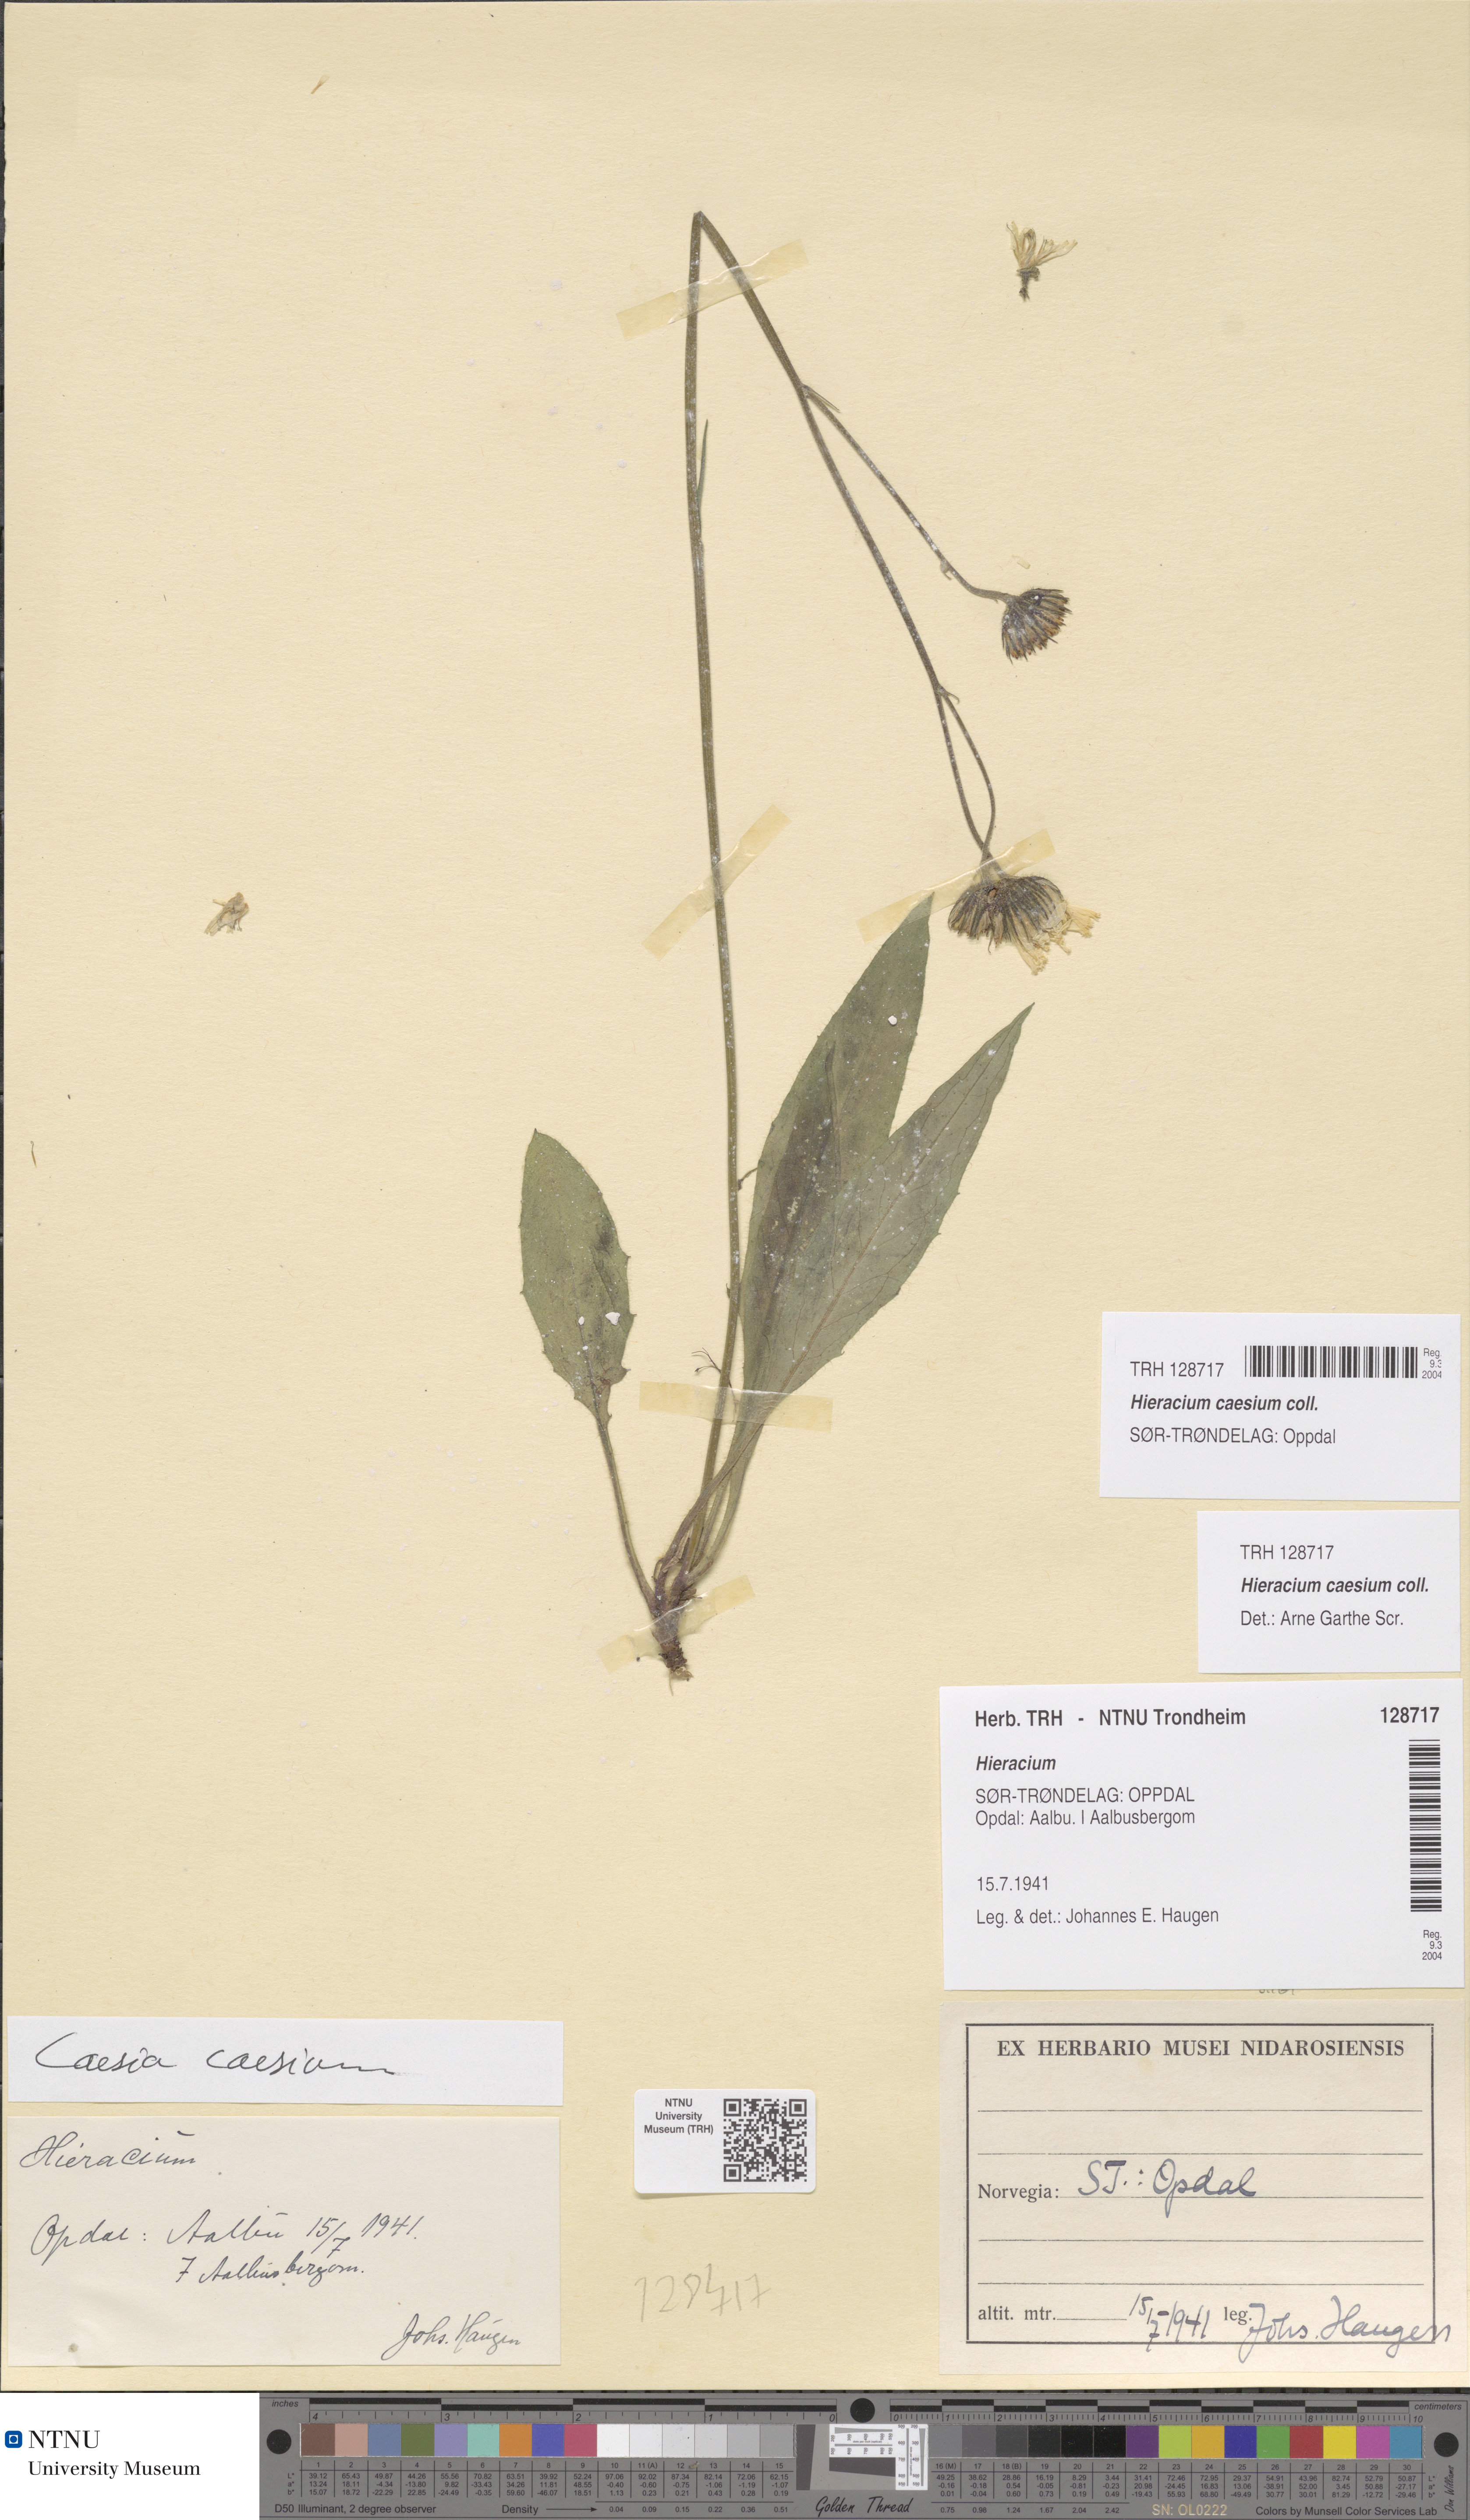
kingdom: Plantae
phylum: Tracheophyta
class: Magnoliopsida
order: Asterales
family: Asteraceae
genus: Hieracium
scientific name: Hieracium caesium
